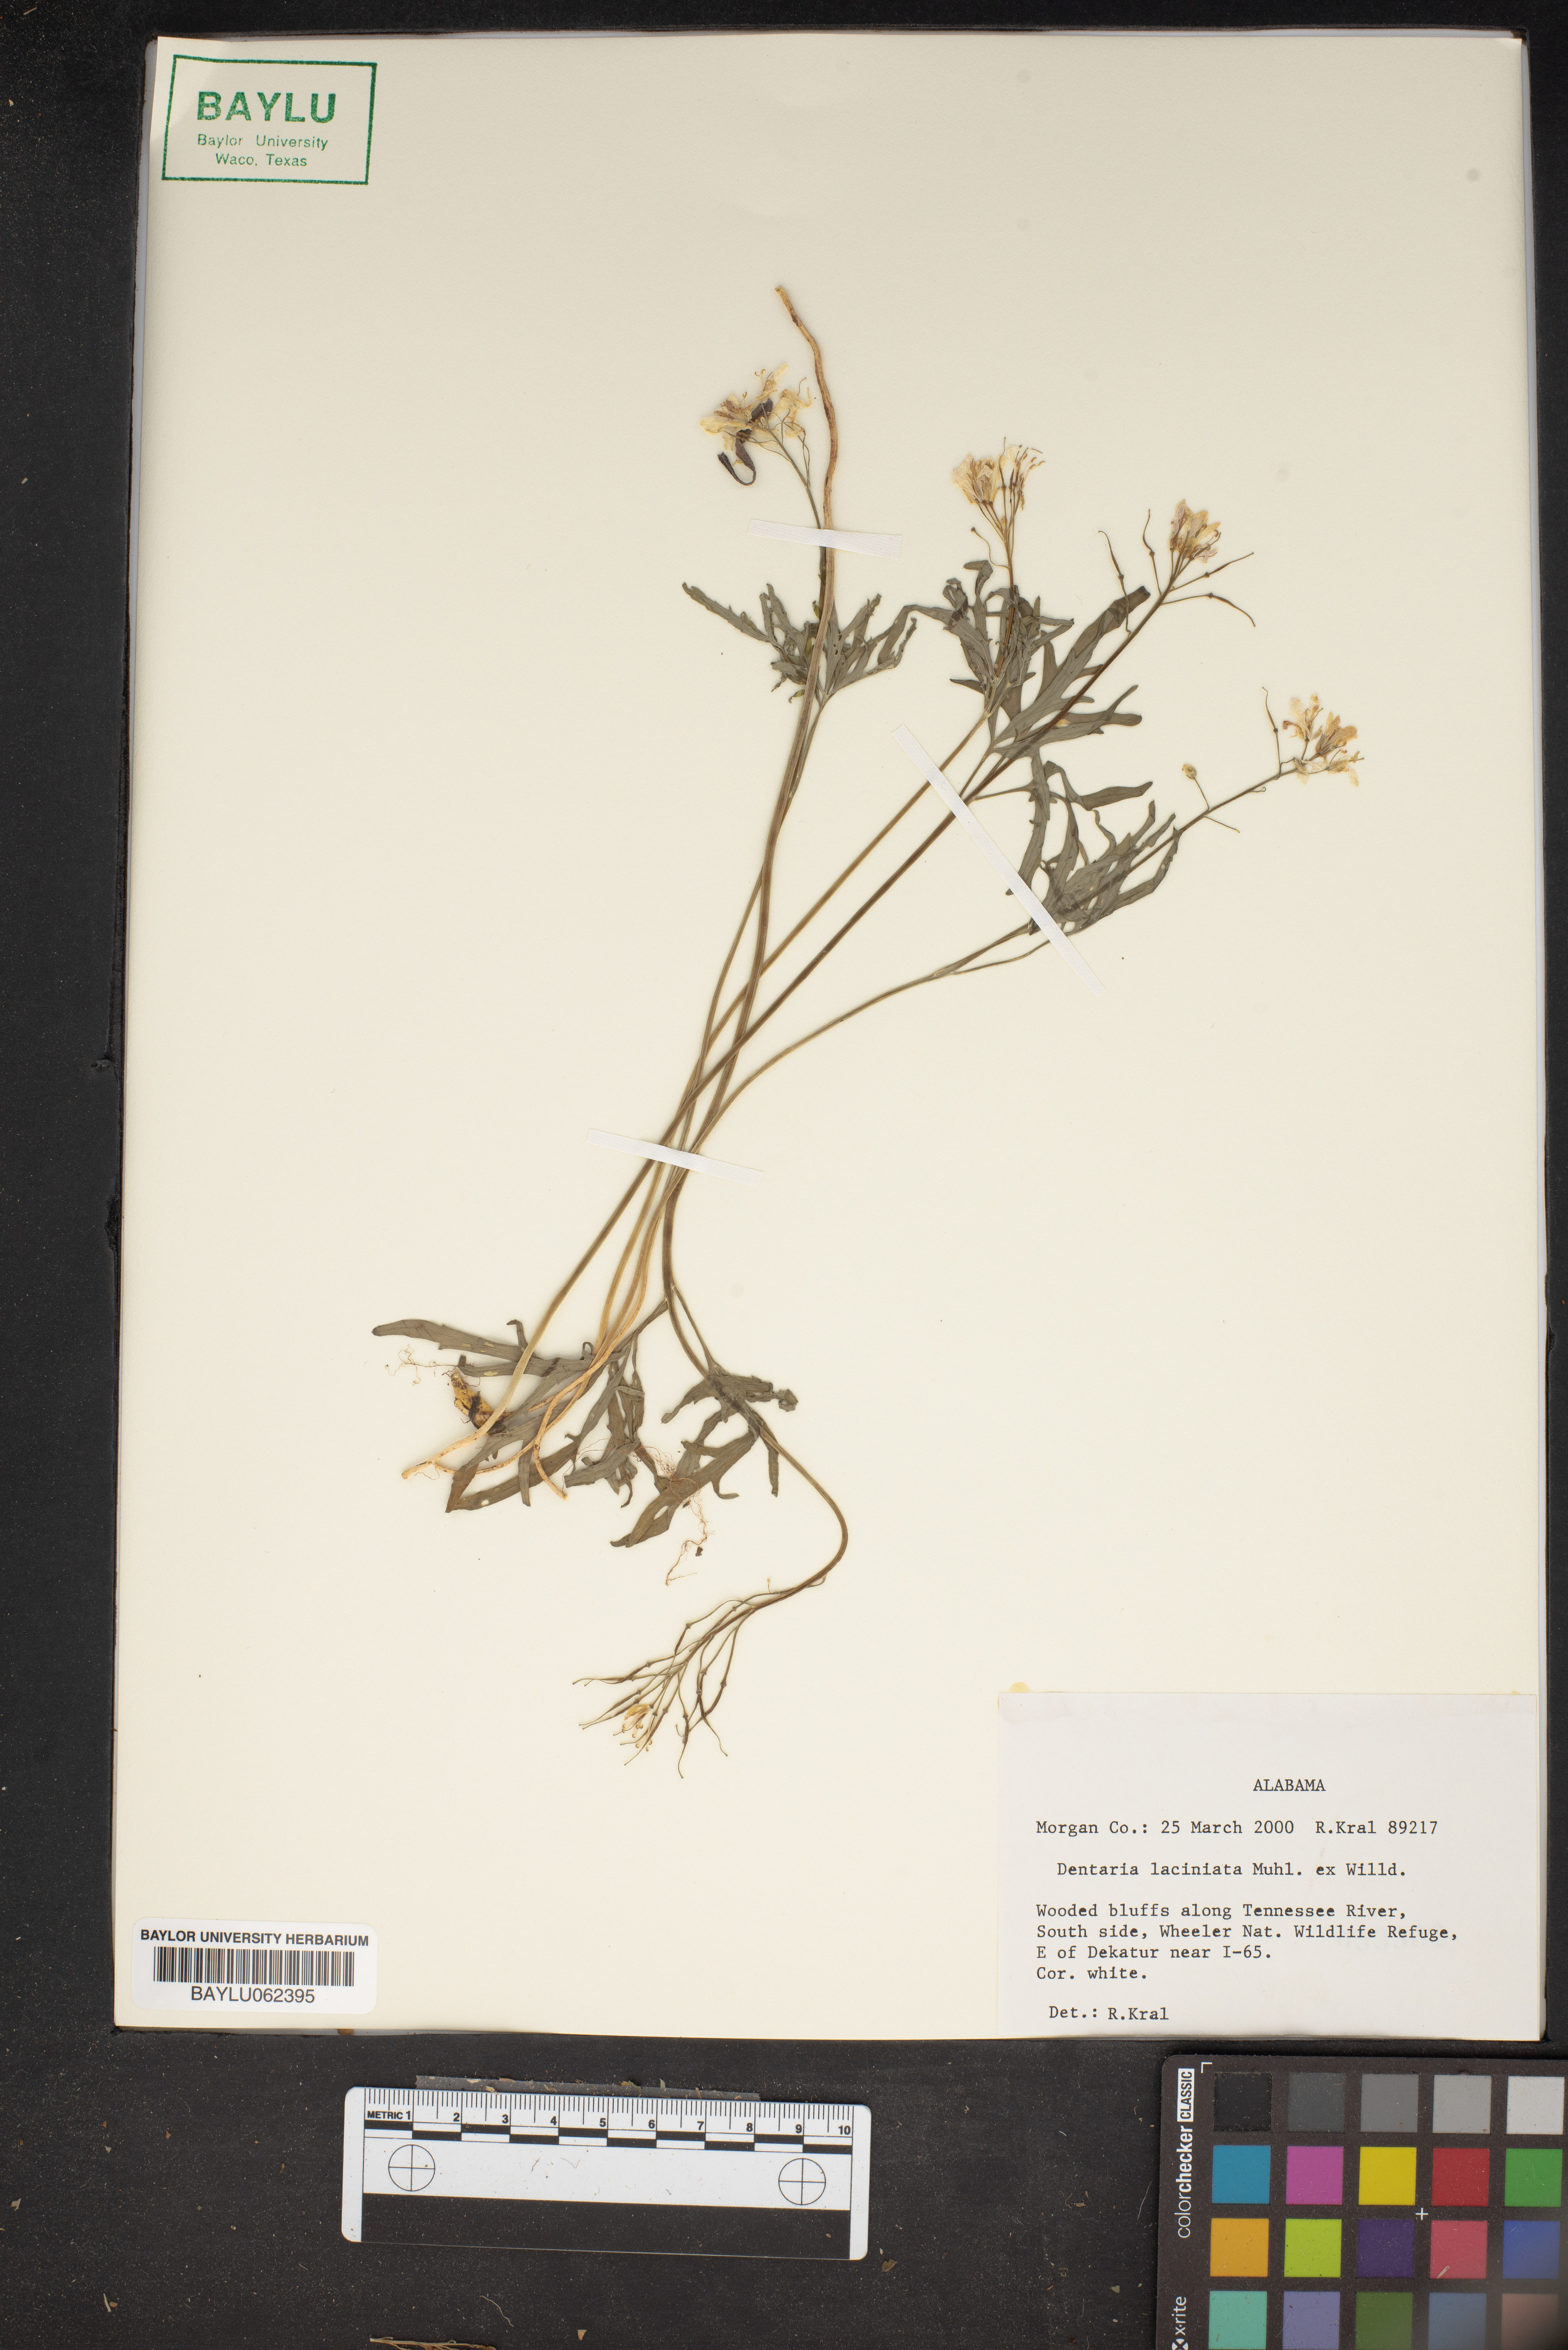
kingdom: Plantae
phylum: Tracheophyta
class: Magnoliopsida
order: Brassicales
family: Brassicaceae
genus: Cardamine
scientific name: Cardamine concatenata
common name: Cut-leaf toothcup
